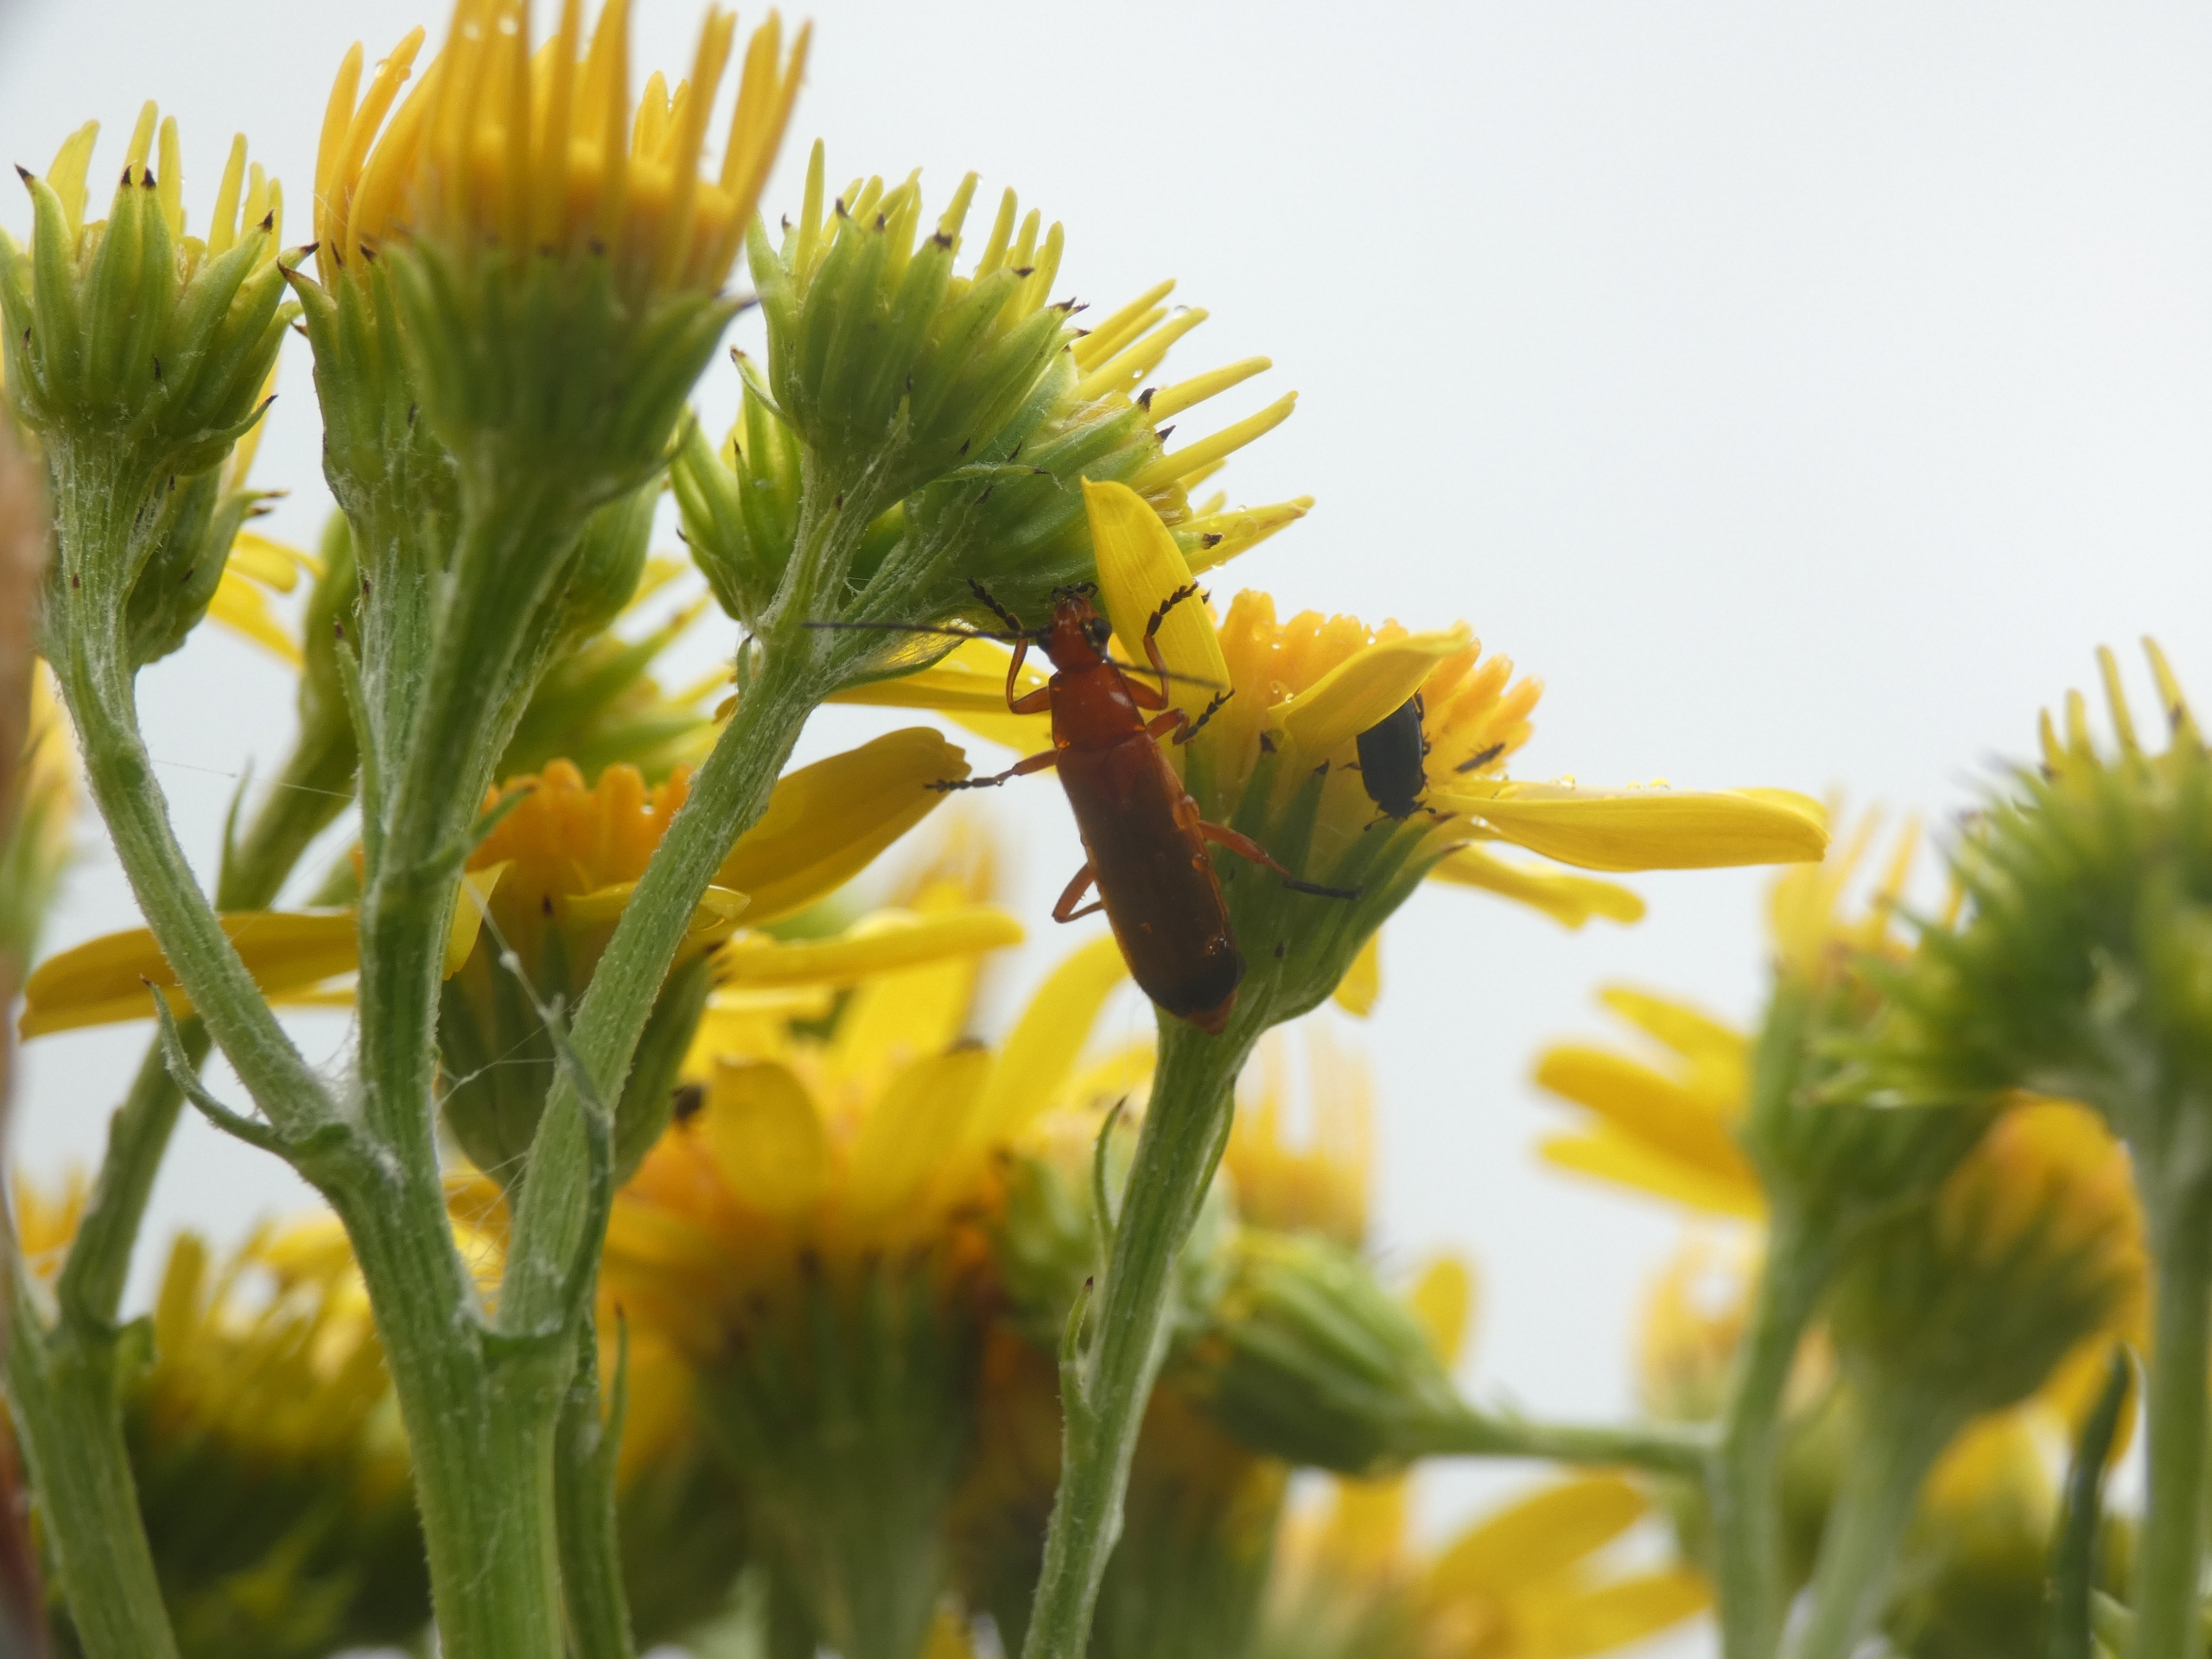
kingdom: Animalia
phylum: Arthropoda
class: Insecta
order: Coleoptera
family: Cantharidae
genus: Rhagonycha
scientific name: Rhagonycha fulva
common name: Præstebille
